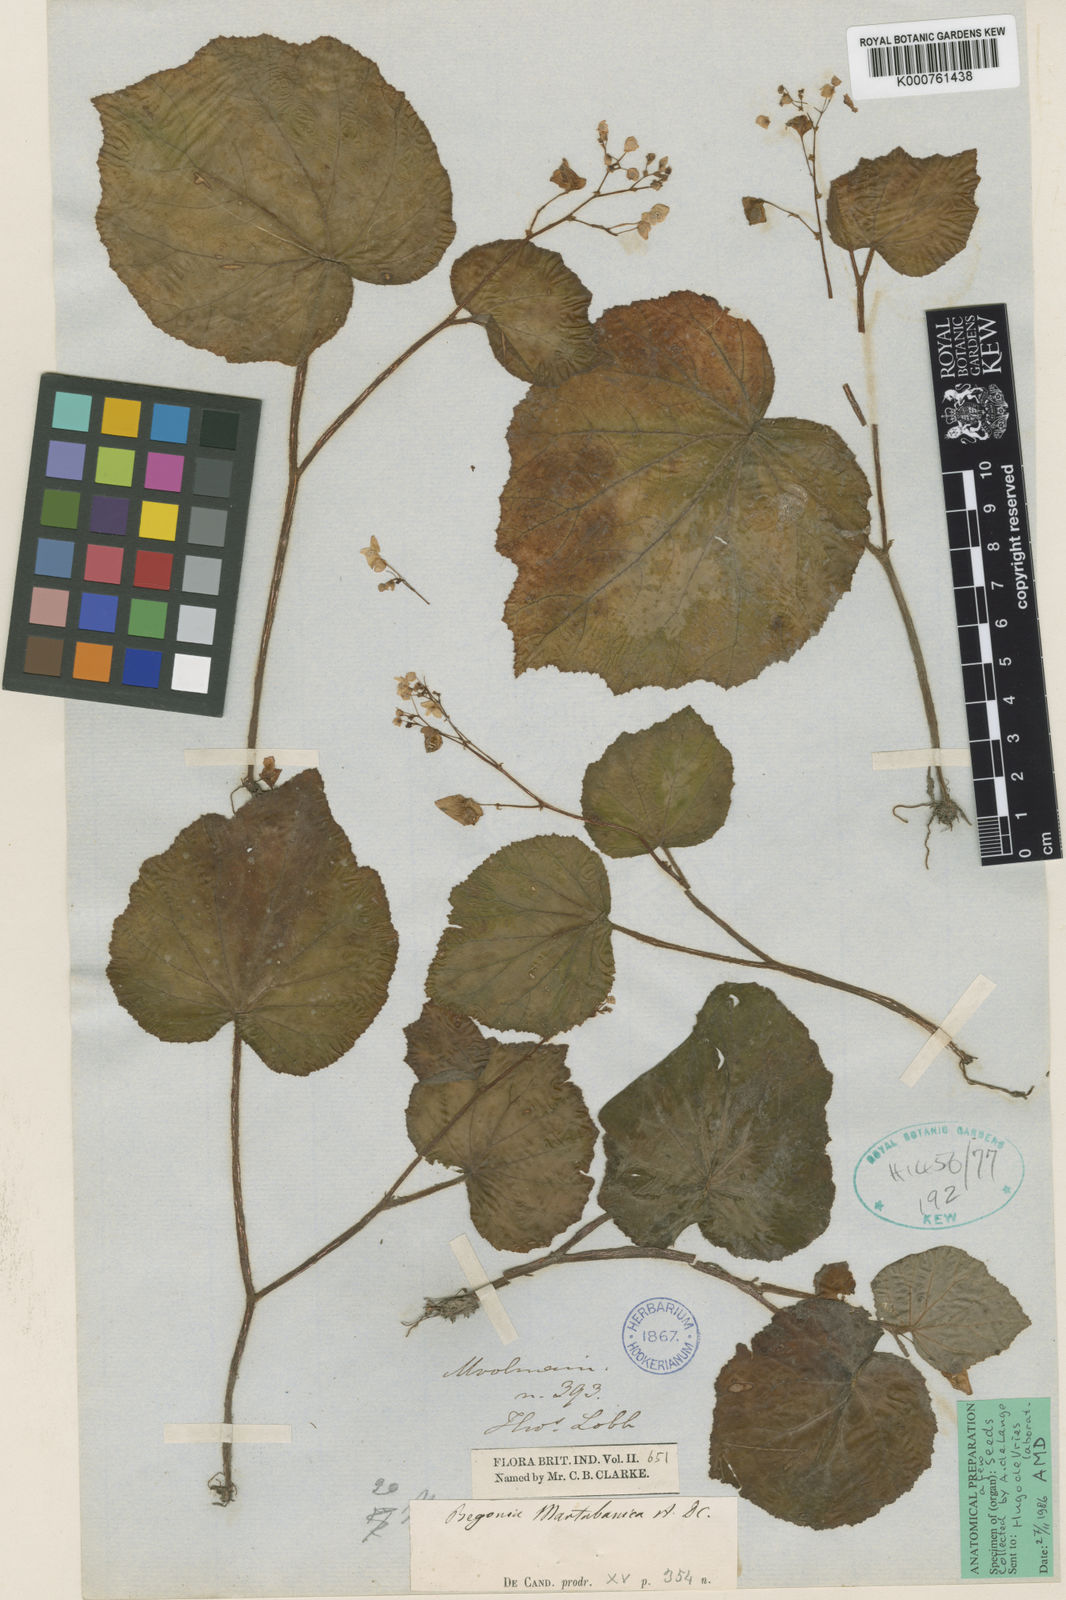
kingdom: Plantae
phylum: Tracheophyta
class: Magnoliopsida
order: Cucurbitales
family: Begoniaceae
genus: Begonia
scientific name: Begonia martabanica
